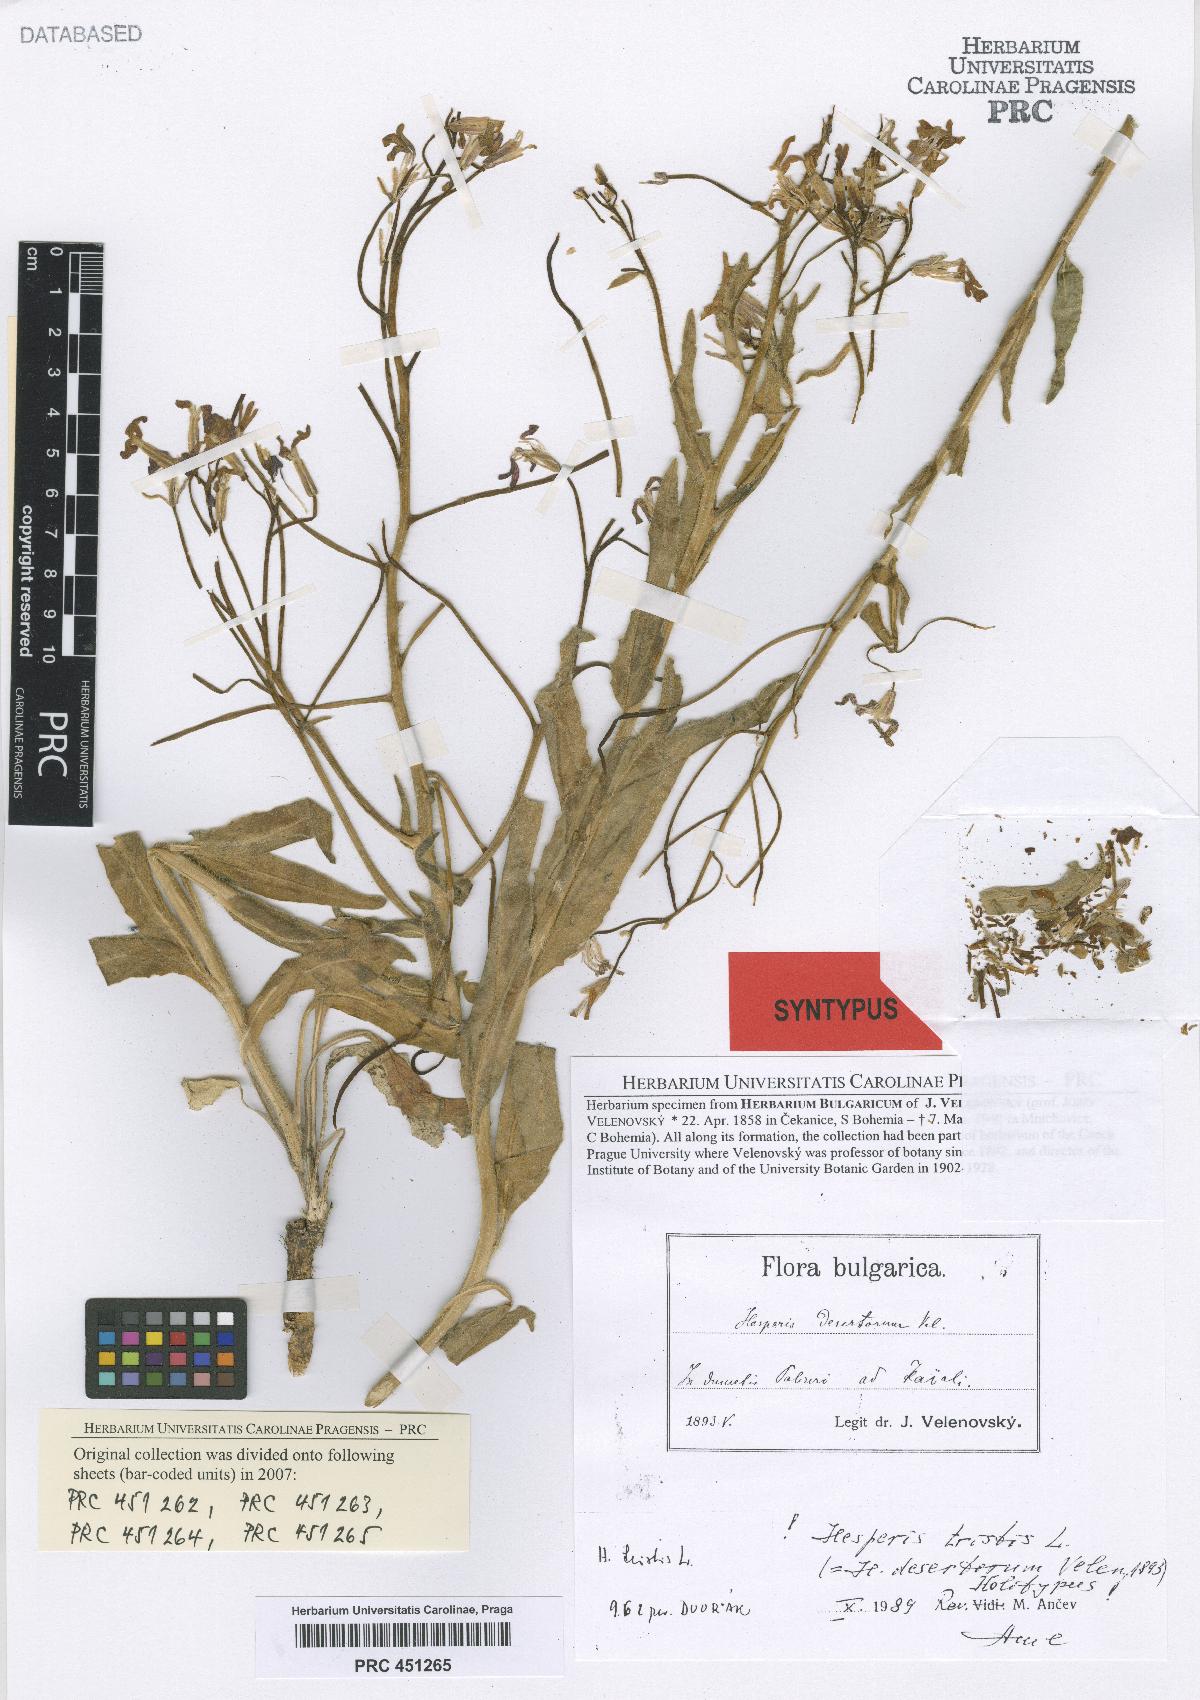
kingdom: Plantae
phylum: Tracheophyta
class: Magnoliopsida
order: Brassicales
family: Brassicaceae
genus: Hesperis
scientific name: Hesperis tristis
